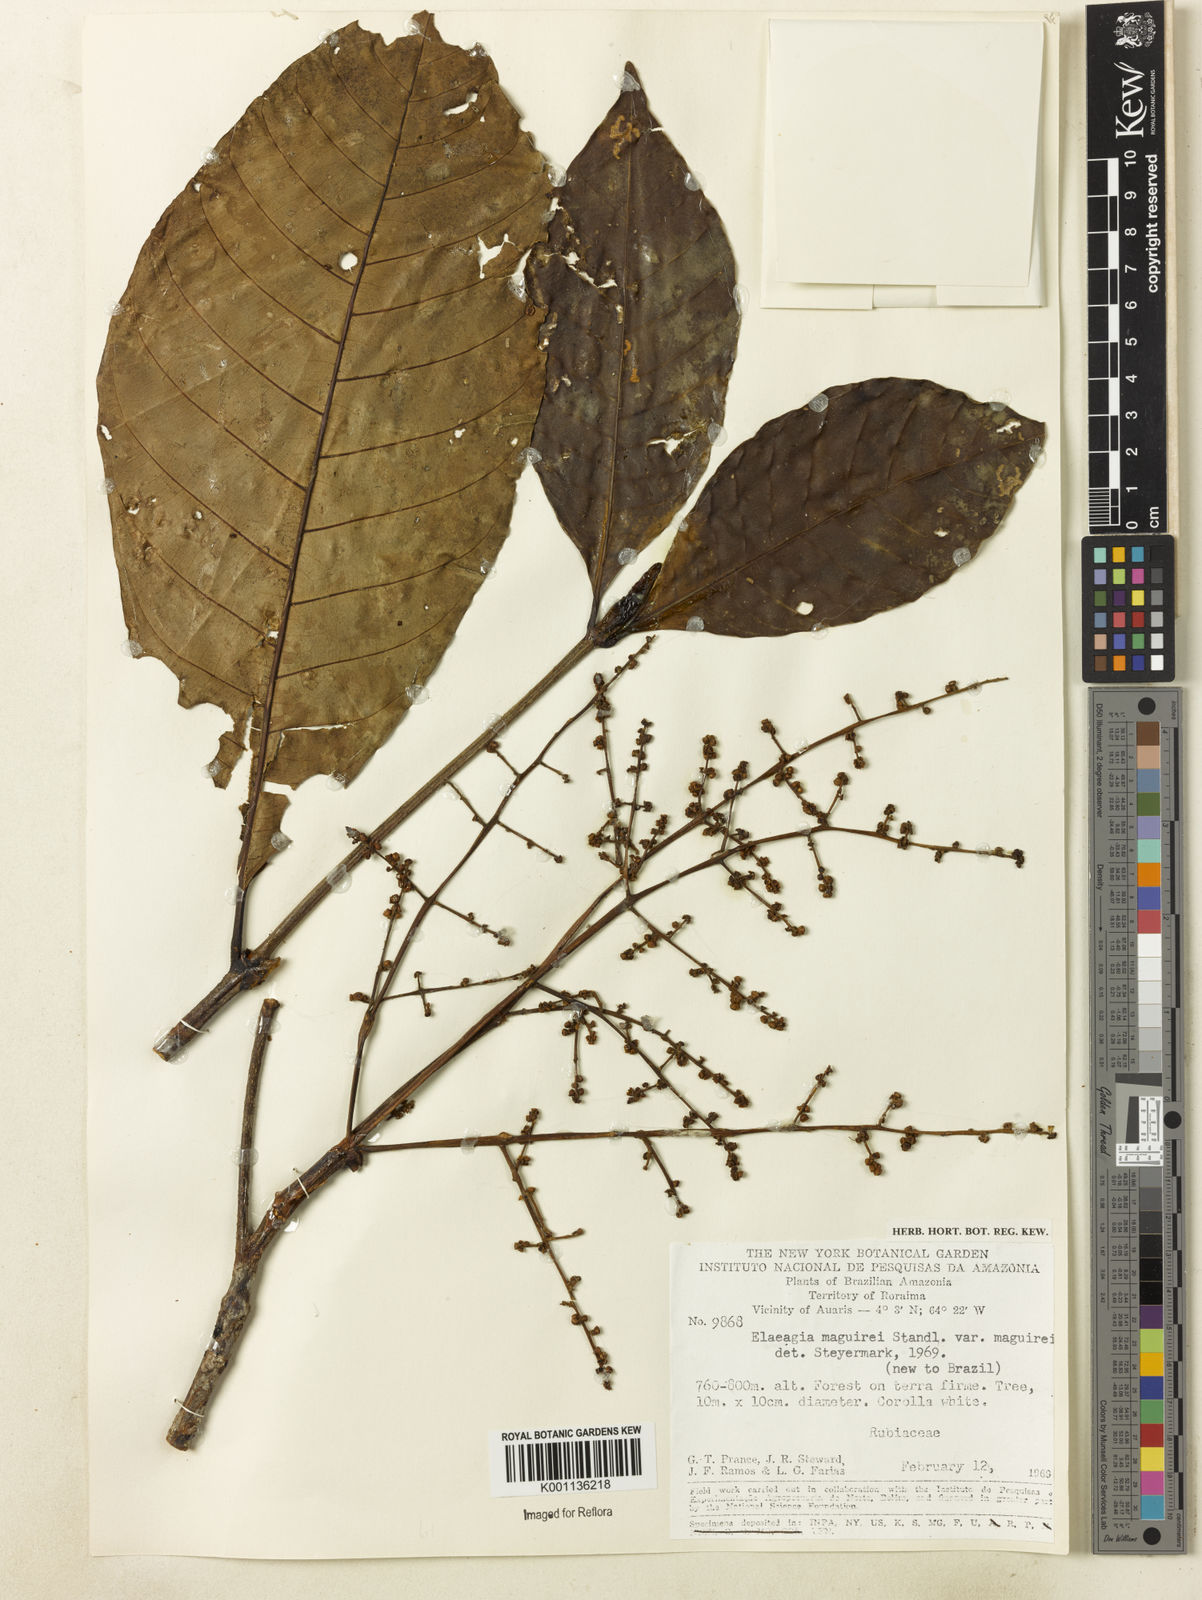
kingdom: Plantae
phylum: Tracheophyta
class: Magnoliopsida
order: Gentianales
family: Rubiaceae
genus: Elaeagia
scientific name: Elaeagia maguirei
